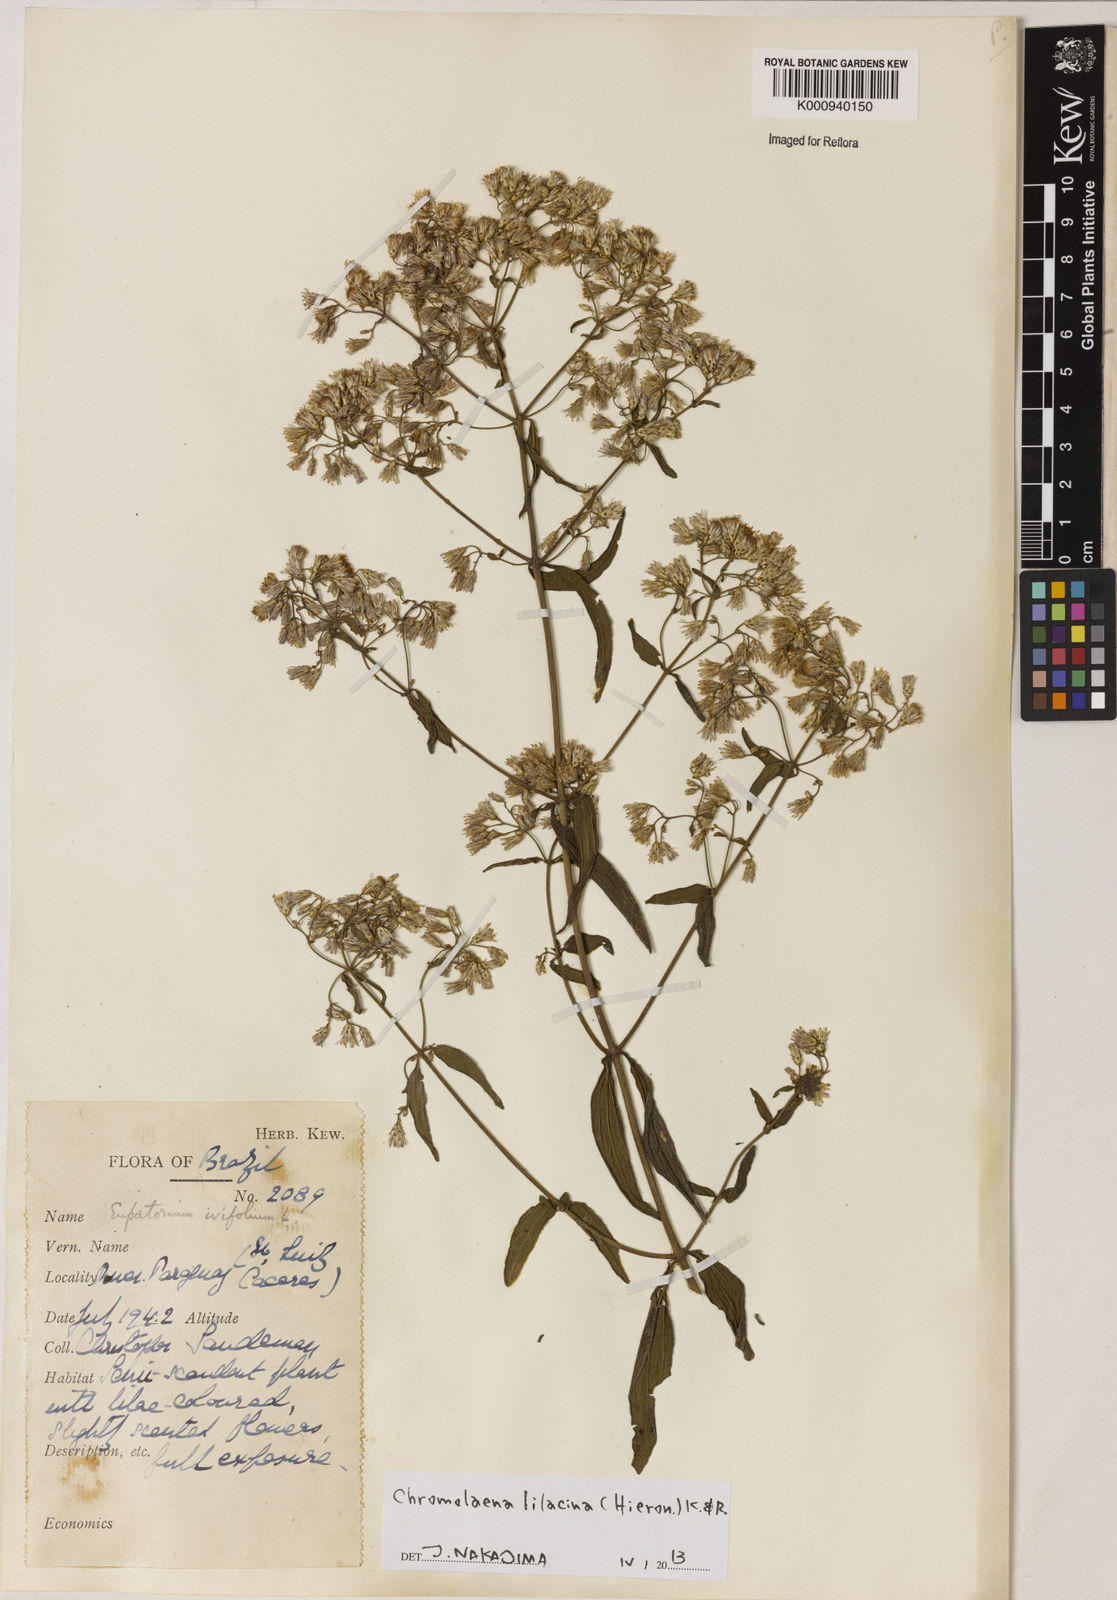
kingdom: Plantae
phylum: Tracheophyta
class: Magnoliopsida
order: Asterales
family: Asteraceae
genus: Chromolaena
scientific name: Chromolaena lilacina
